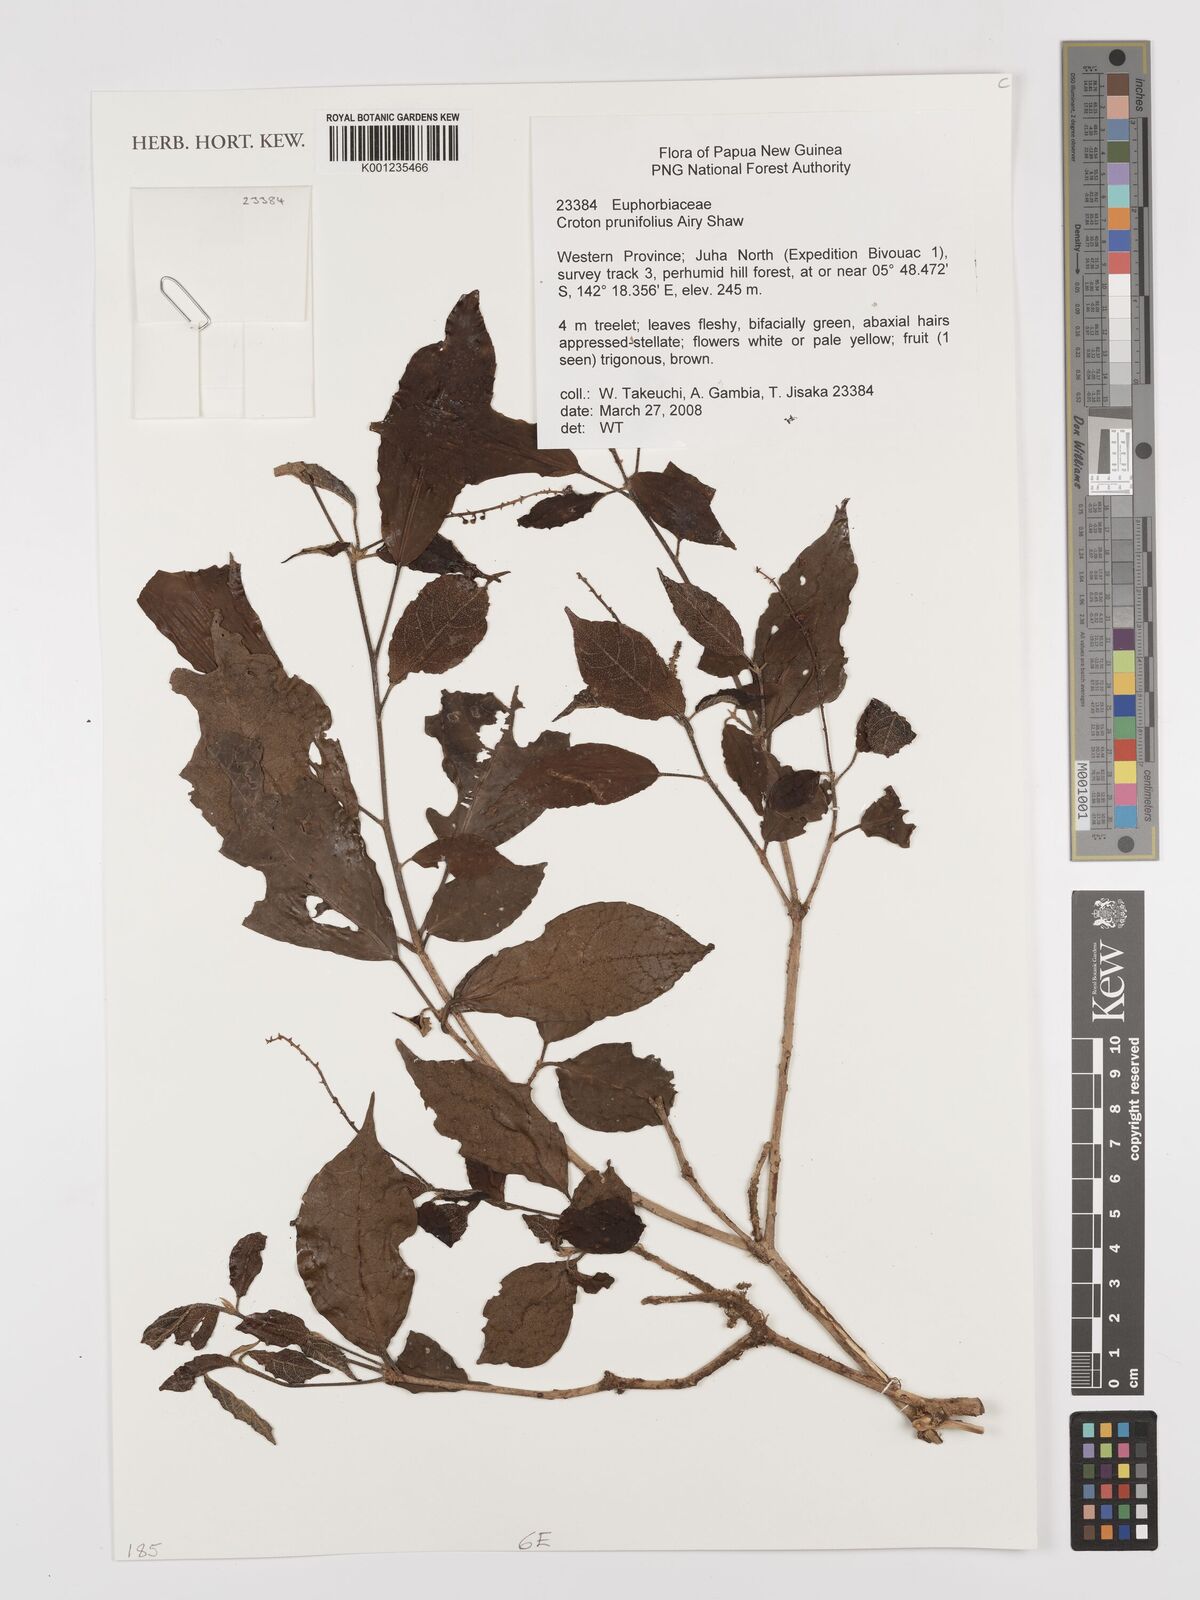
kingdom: Plantae
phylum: Tracheophyta
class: Magnoliopsida
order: Malpighiales
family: Euphorbiaceae
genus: Croton
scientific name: Croton coccymelophyllus
